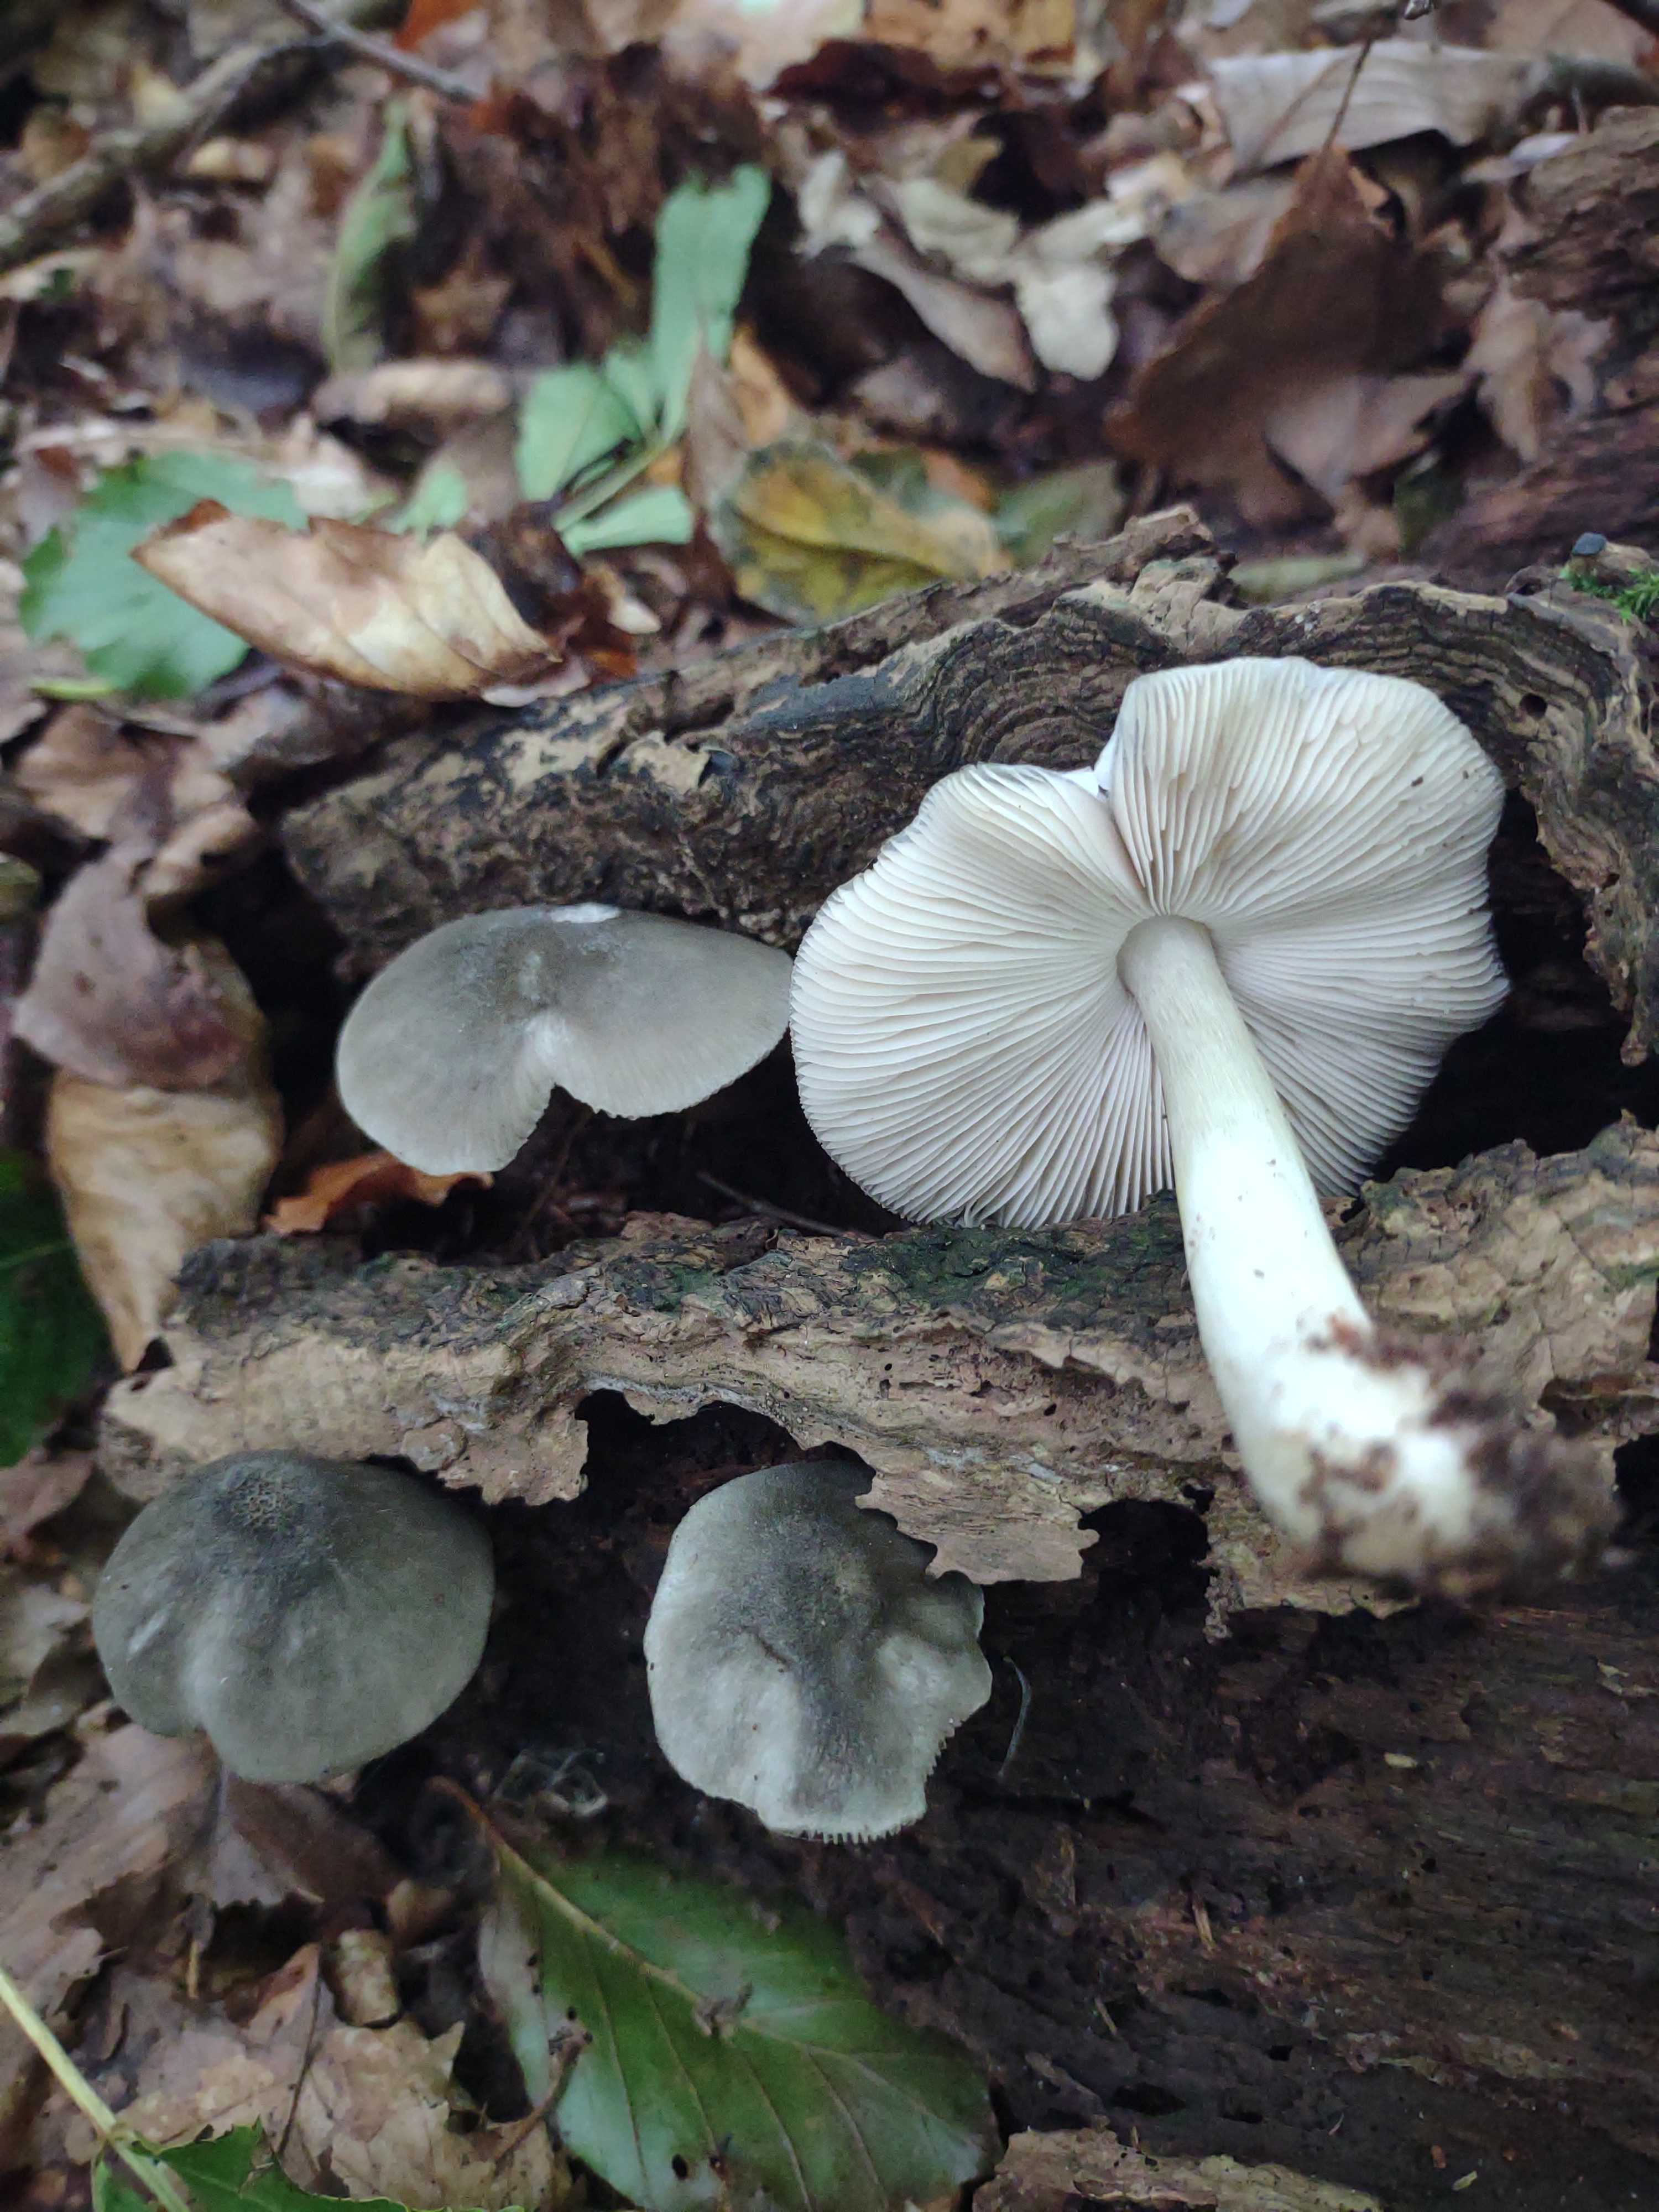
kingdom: Fungi
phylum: Basidiomycota
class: Agaricomycetes
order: Agaricales
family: Pluteaceae
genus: Pluteus
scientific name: Pluteus salicinus
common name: stiv skærmhat
